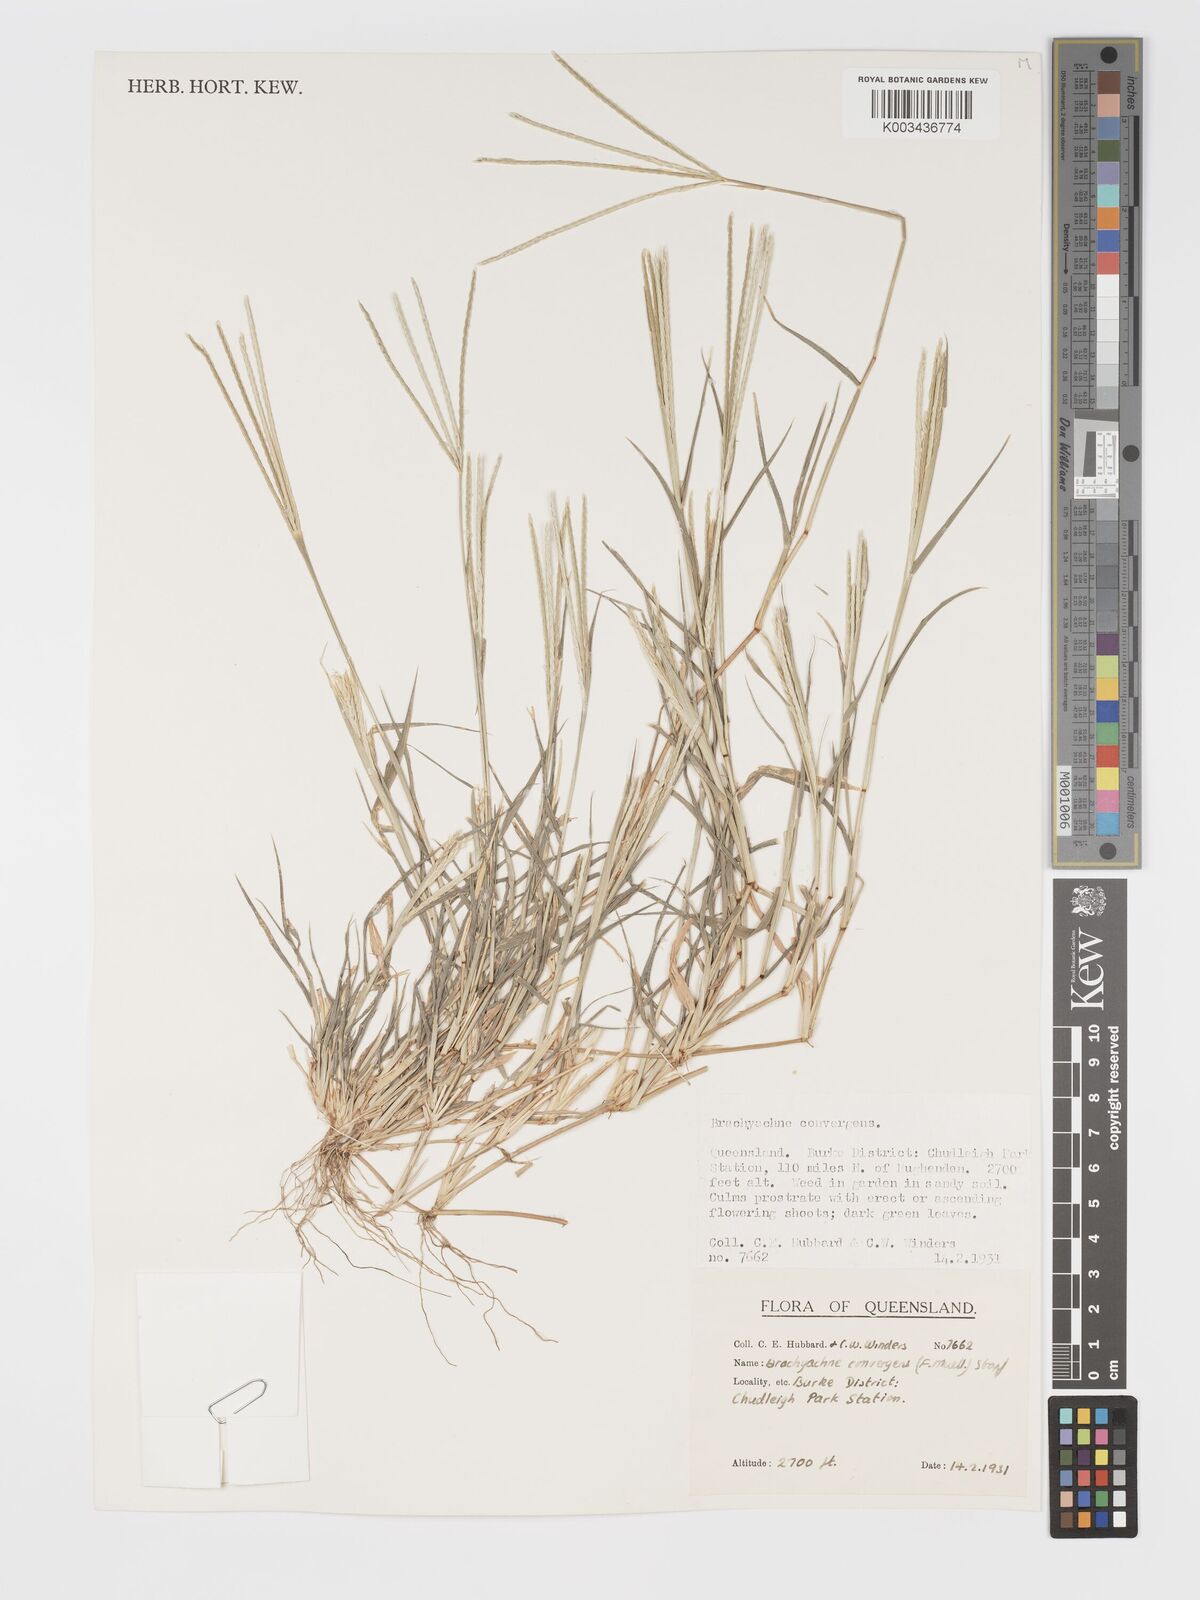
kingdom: Plantae
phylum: Tracheophyta
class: Liliopsida
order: Poales
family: Poaceae
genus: Cynodon
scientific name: Cynodon convergens
